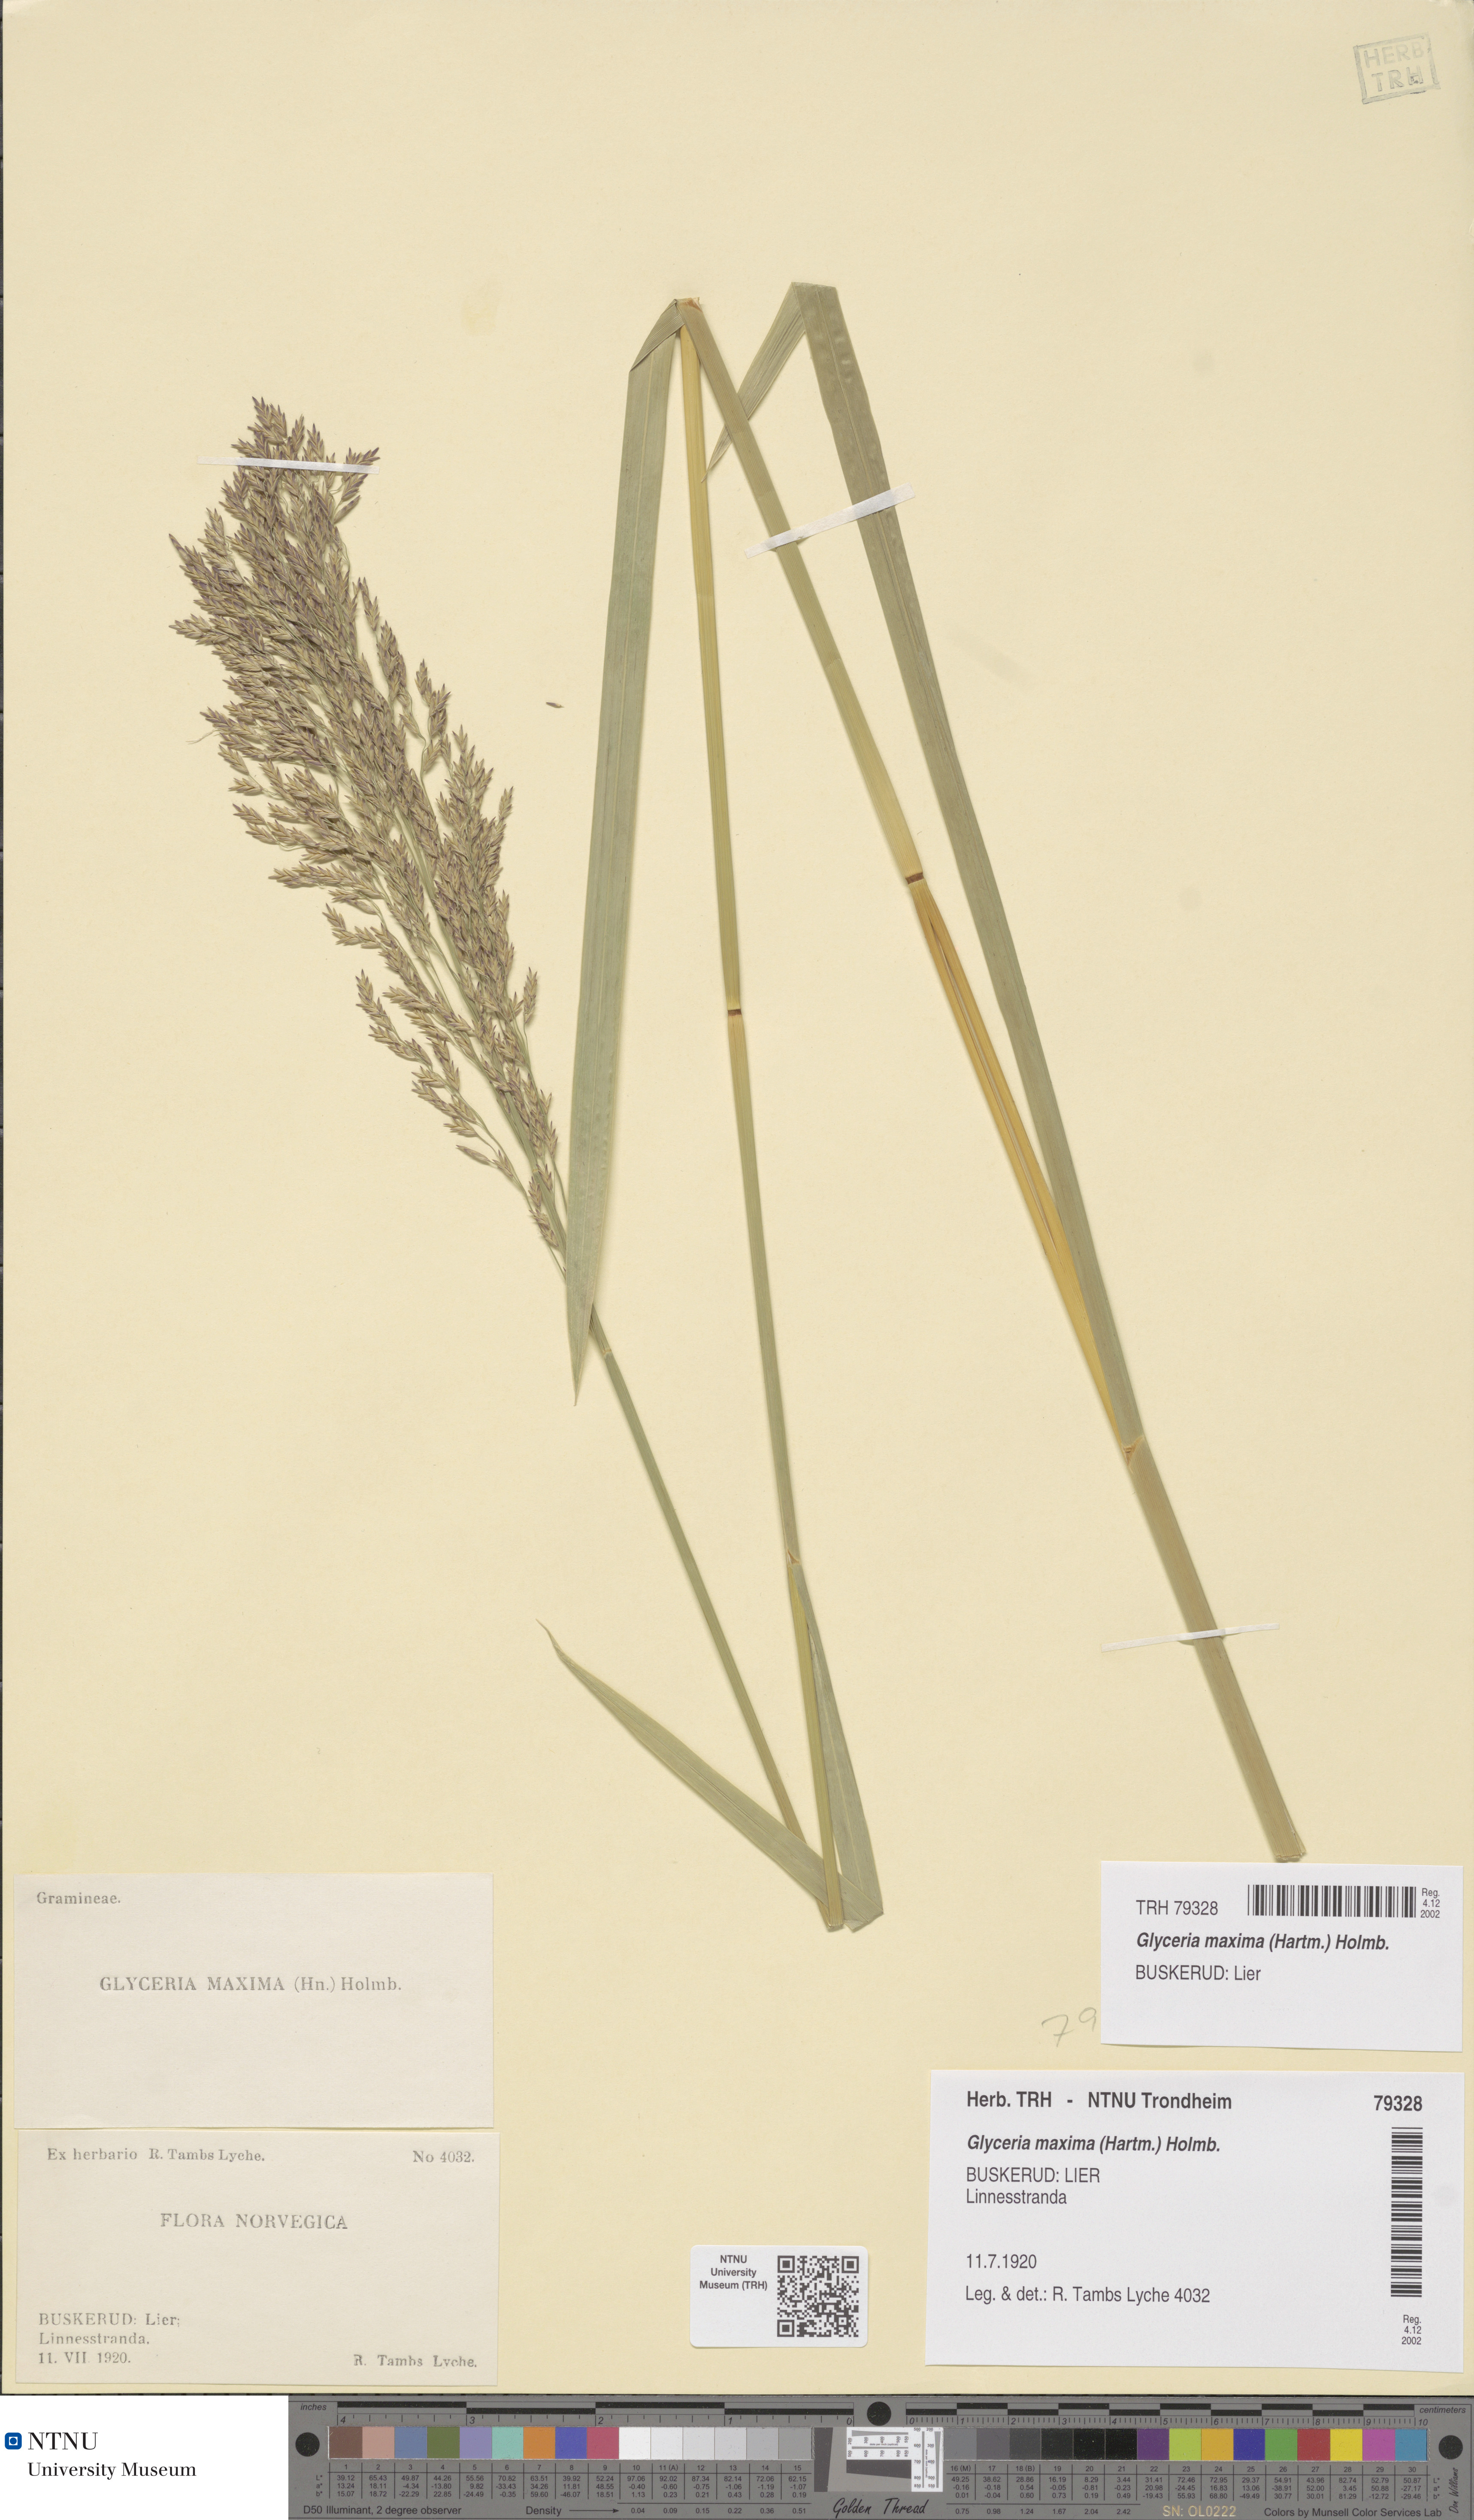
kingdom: Plantae
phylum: Tracheophyta
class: Liliopsida
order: Poales
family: Poaceae
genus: Glyceria
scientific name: Glyceria maxima
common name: Reed mannagrass
